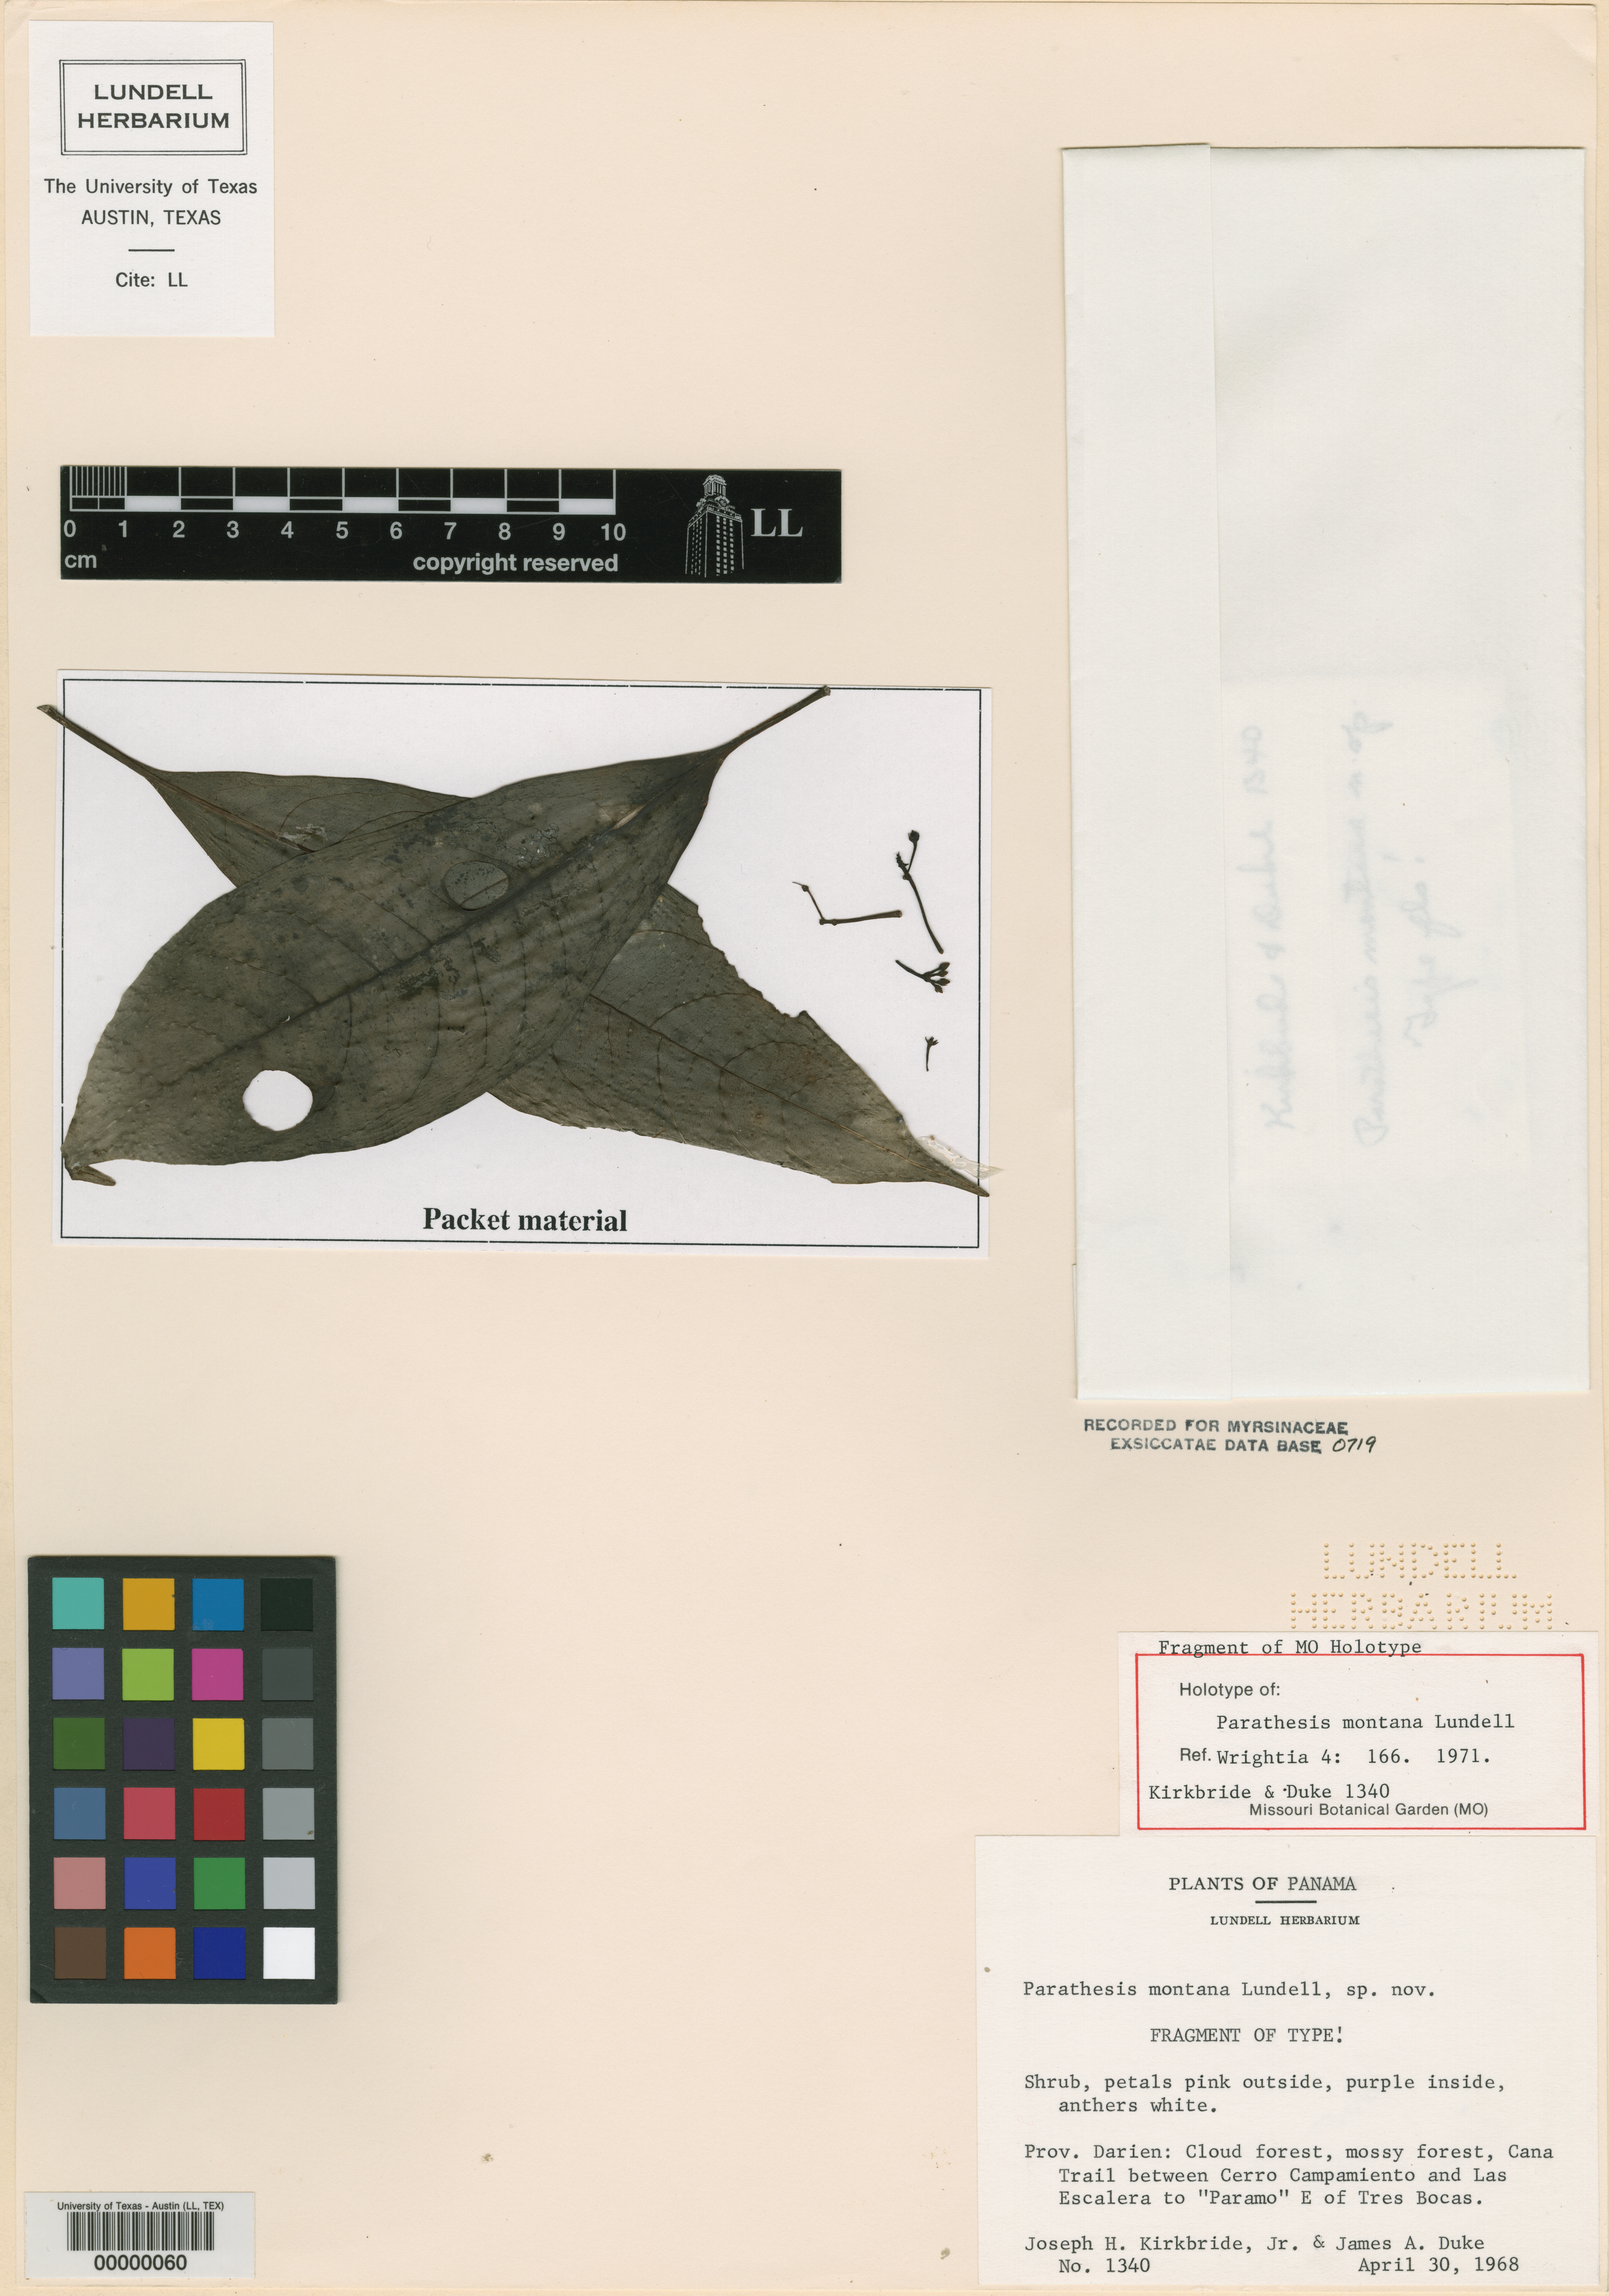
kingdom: Plantae
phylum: Tracheophyta
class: Magnoliopsida
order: Ericales
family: Primulaceae
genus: Parathesis
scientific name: Parathesis montana
